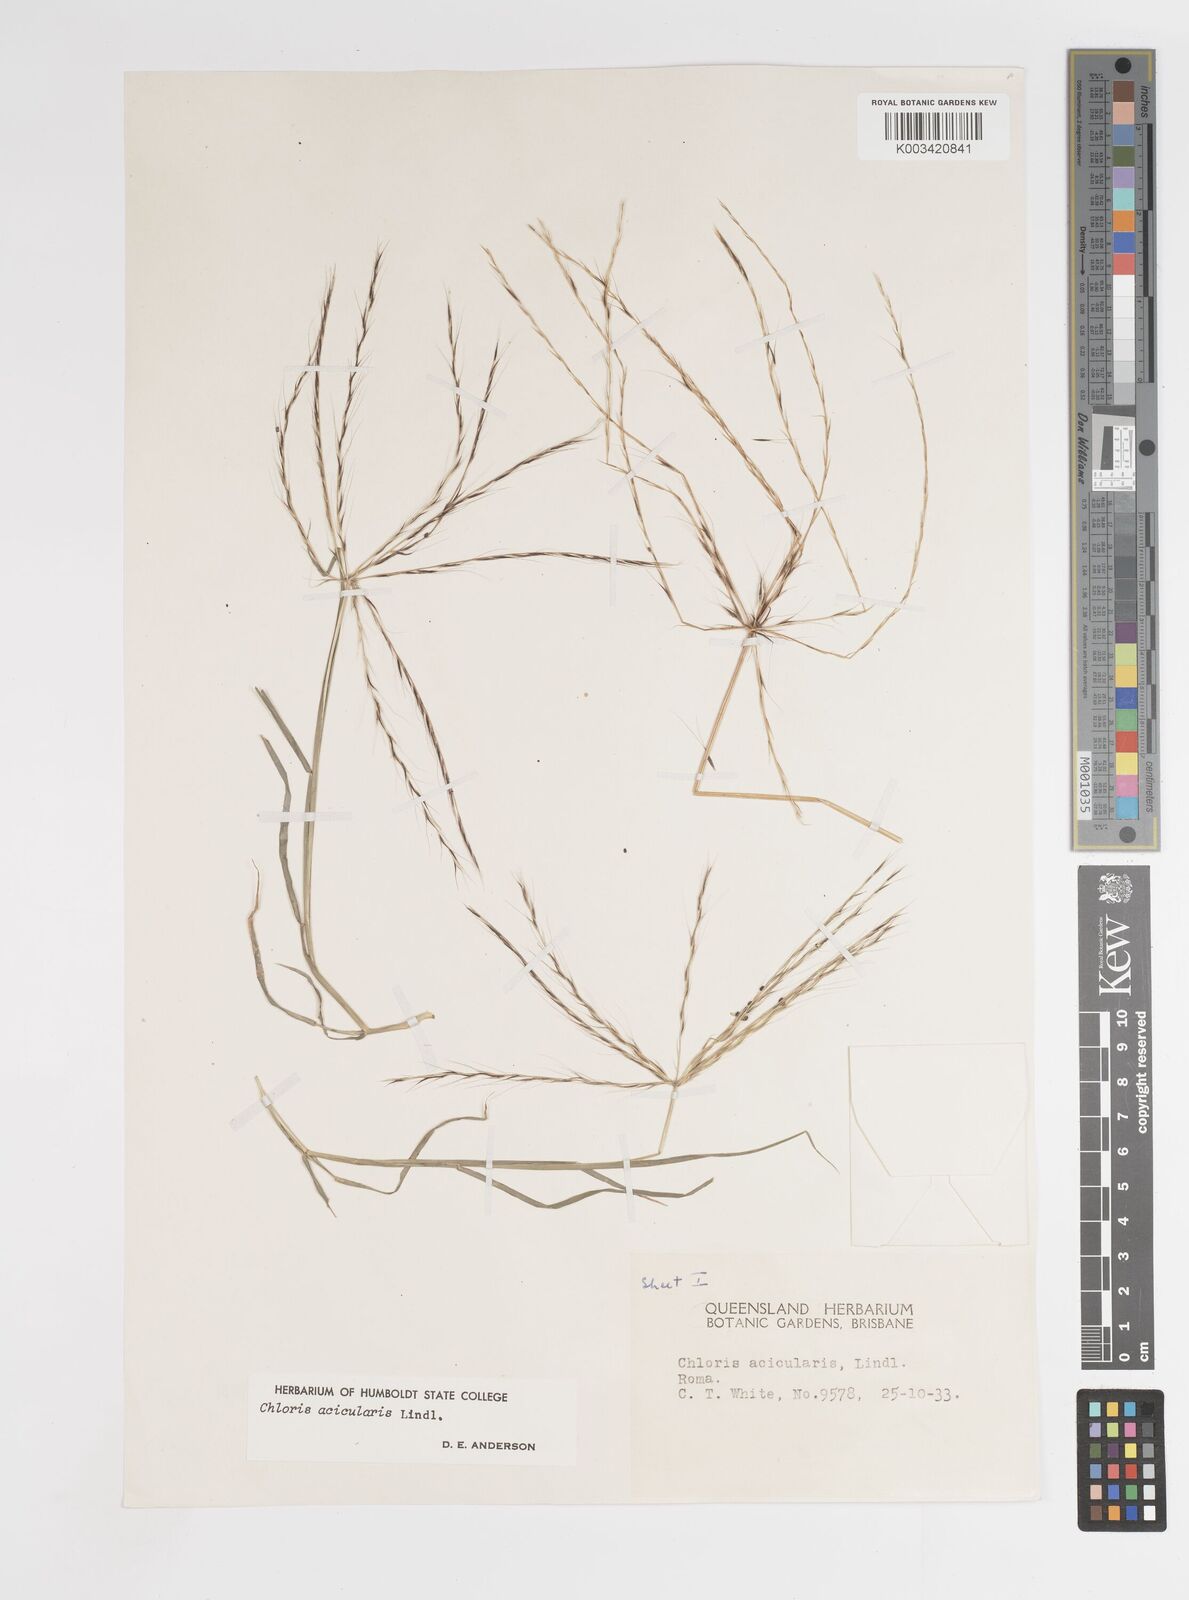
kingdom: Plantae
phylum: Tracheophyta
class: Liliopsida
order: Poales
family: Poaceae
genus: Enteropogon
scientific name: Enteropogon acicularis
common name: Curly windmill grass
